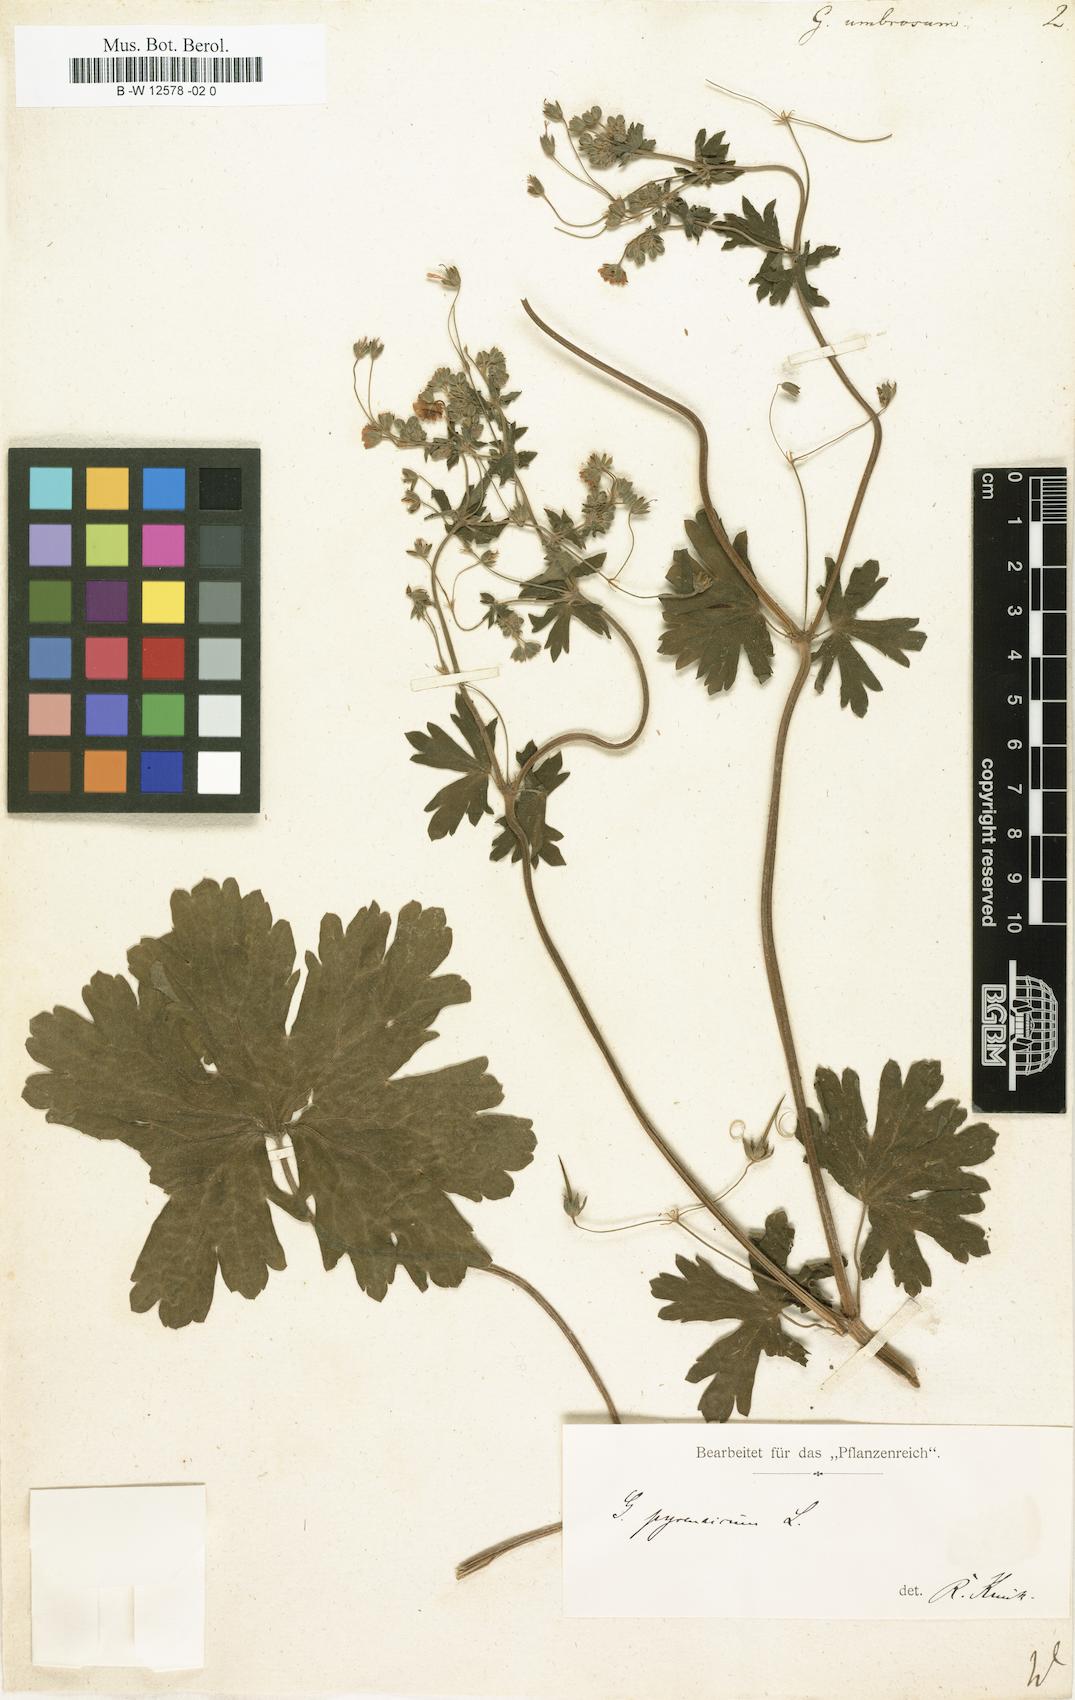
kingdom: Plantae
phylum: Tracheophyta
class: Magnoliopsida
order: Geraniales
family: Geraniaceae
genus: Geranium
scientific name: Geranium pyrenaicum
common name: Hedgerow crane's-bill
